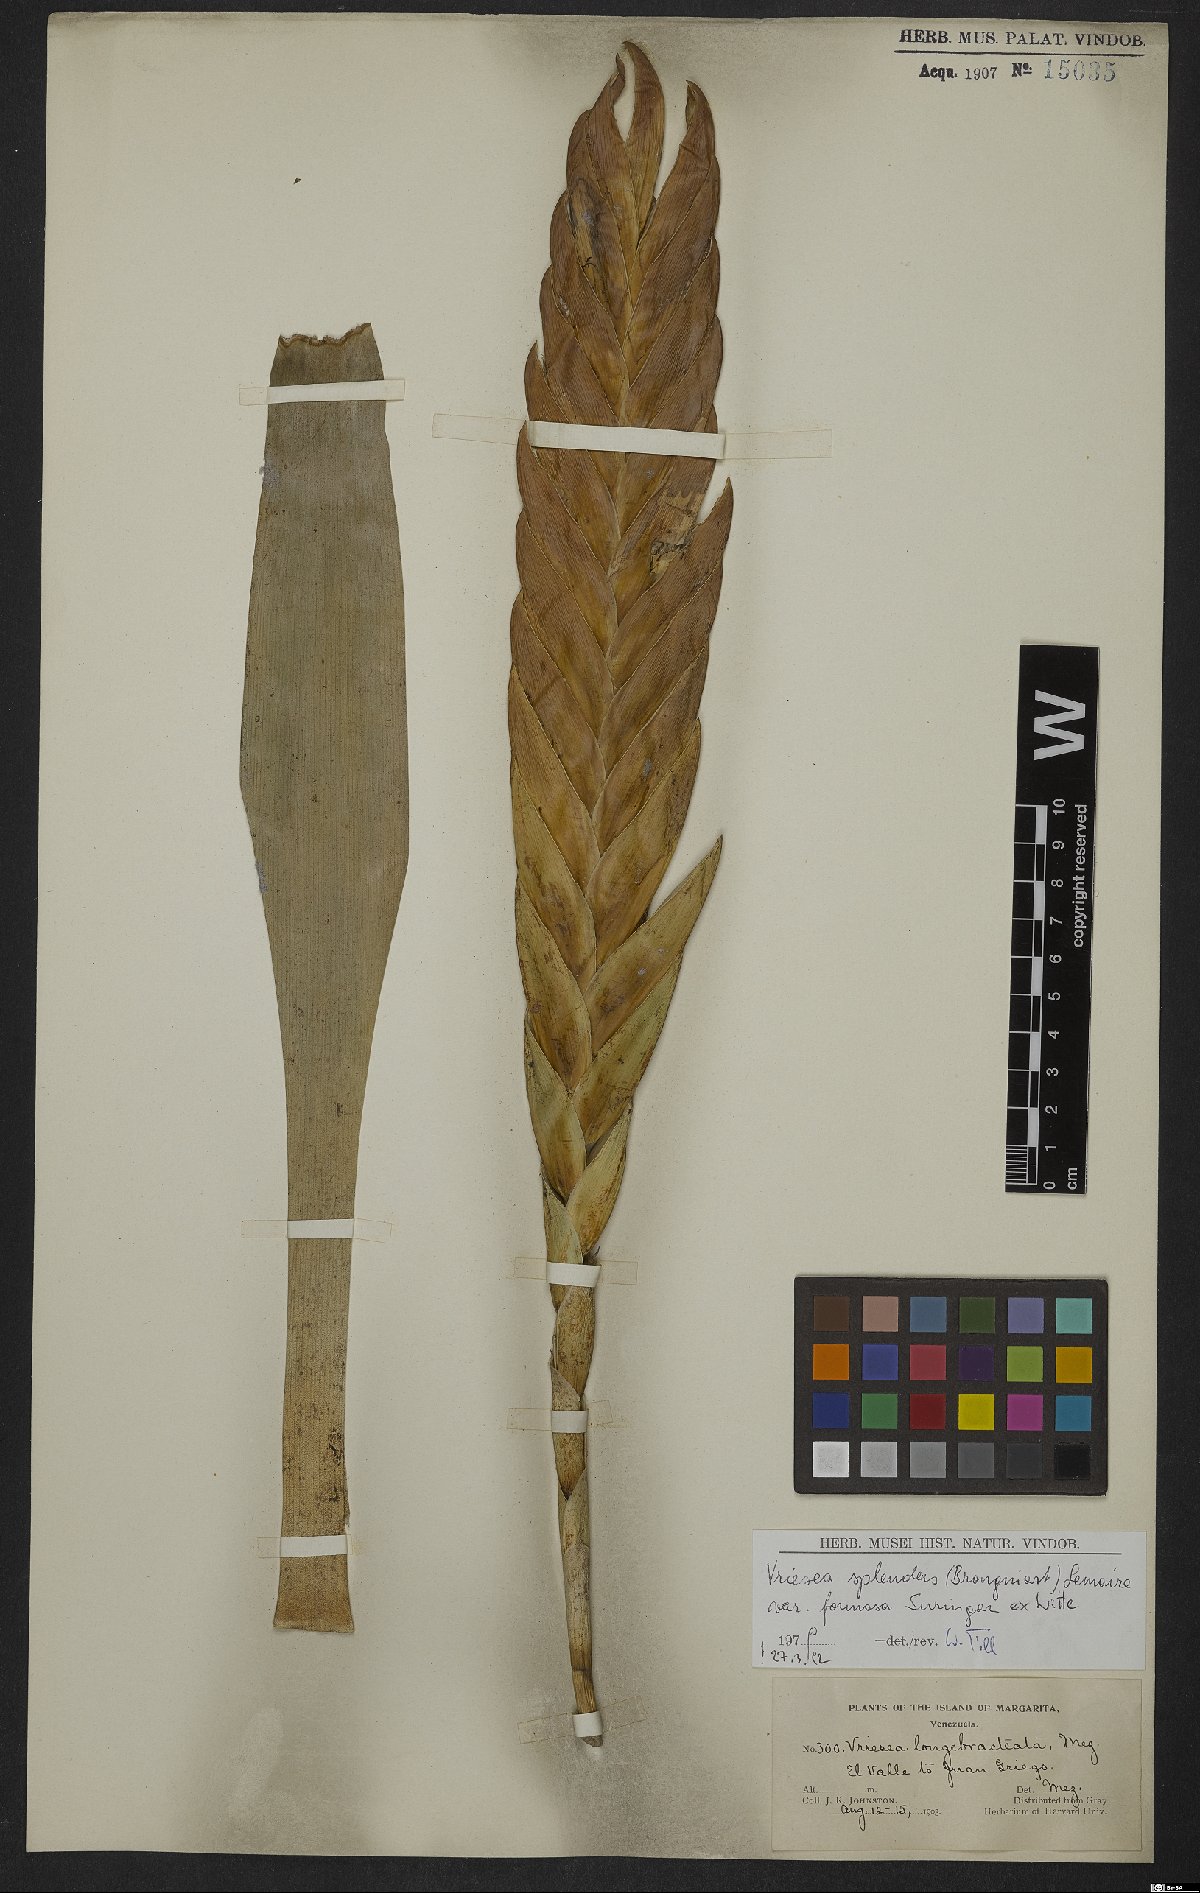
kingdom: Plantae
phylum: Tracheophyta
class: Liliopsida
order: Poales
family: Bromeliaceae
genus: Lutheria
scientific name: Lutheria splendens
